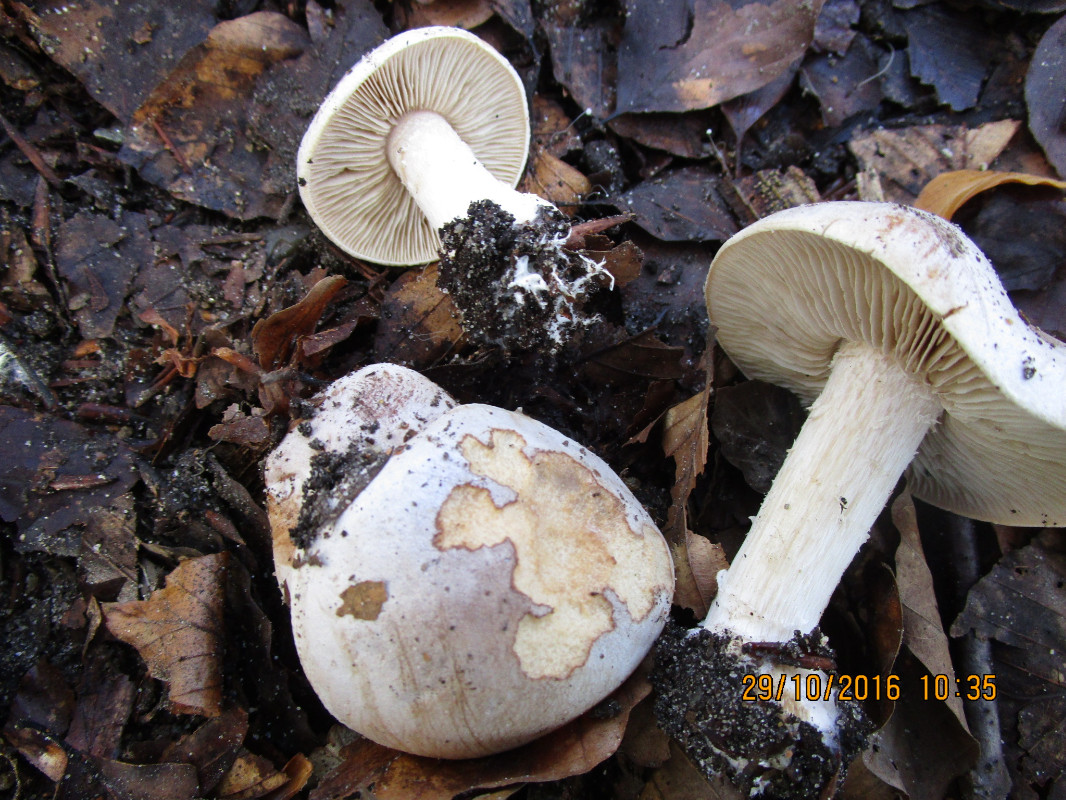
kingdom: Fungi
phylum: Basidiomycota
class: Agaricomycetes
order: Agaricales
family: Hymenogastraceae
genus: Hebeloma
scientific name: Hebeloma laterinum
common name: kakao-tåreblad
